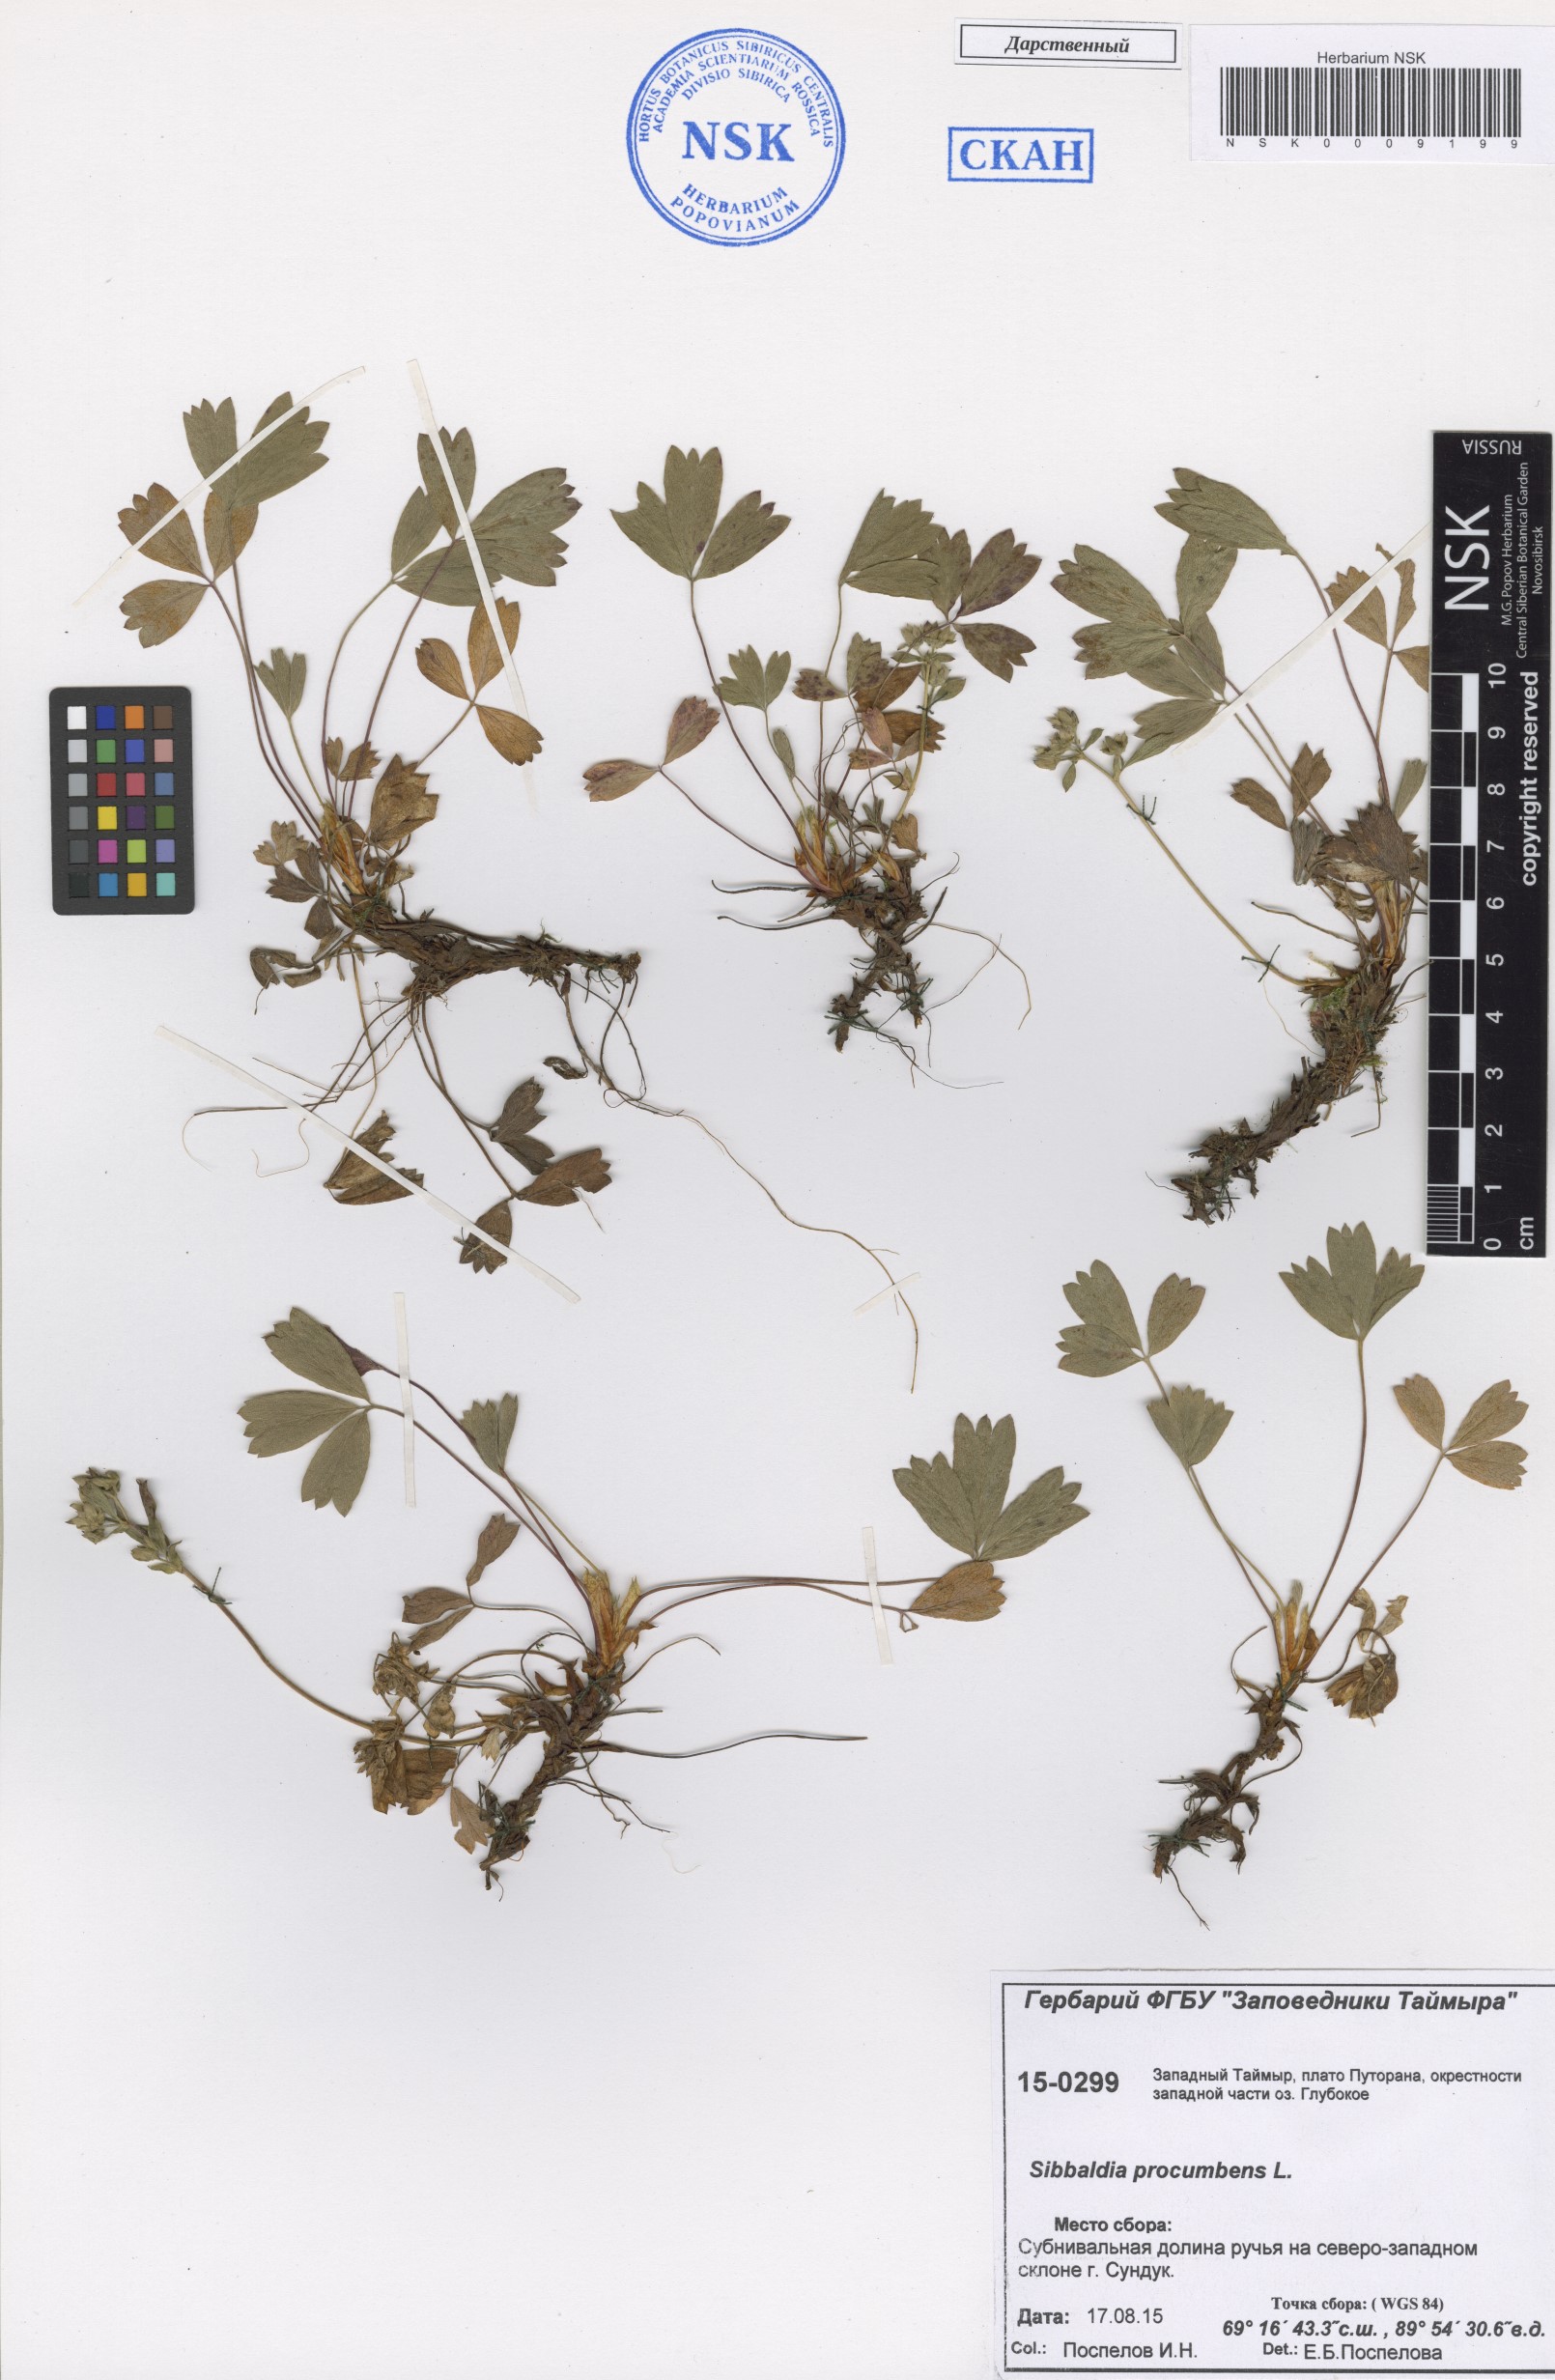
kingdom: Plantae
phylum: Tracheophyta
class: Magnoliopsida
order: Rosales
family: Rosaceae
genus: Sibbaldia
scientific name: Sibbaldia procumbens
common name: Creeping sibbaldia
